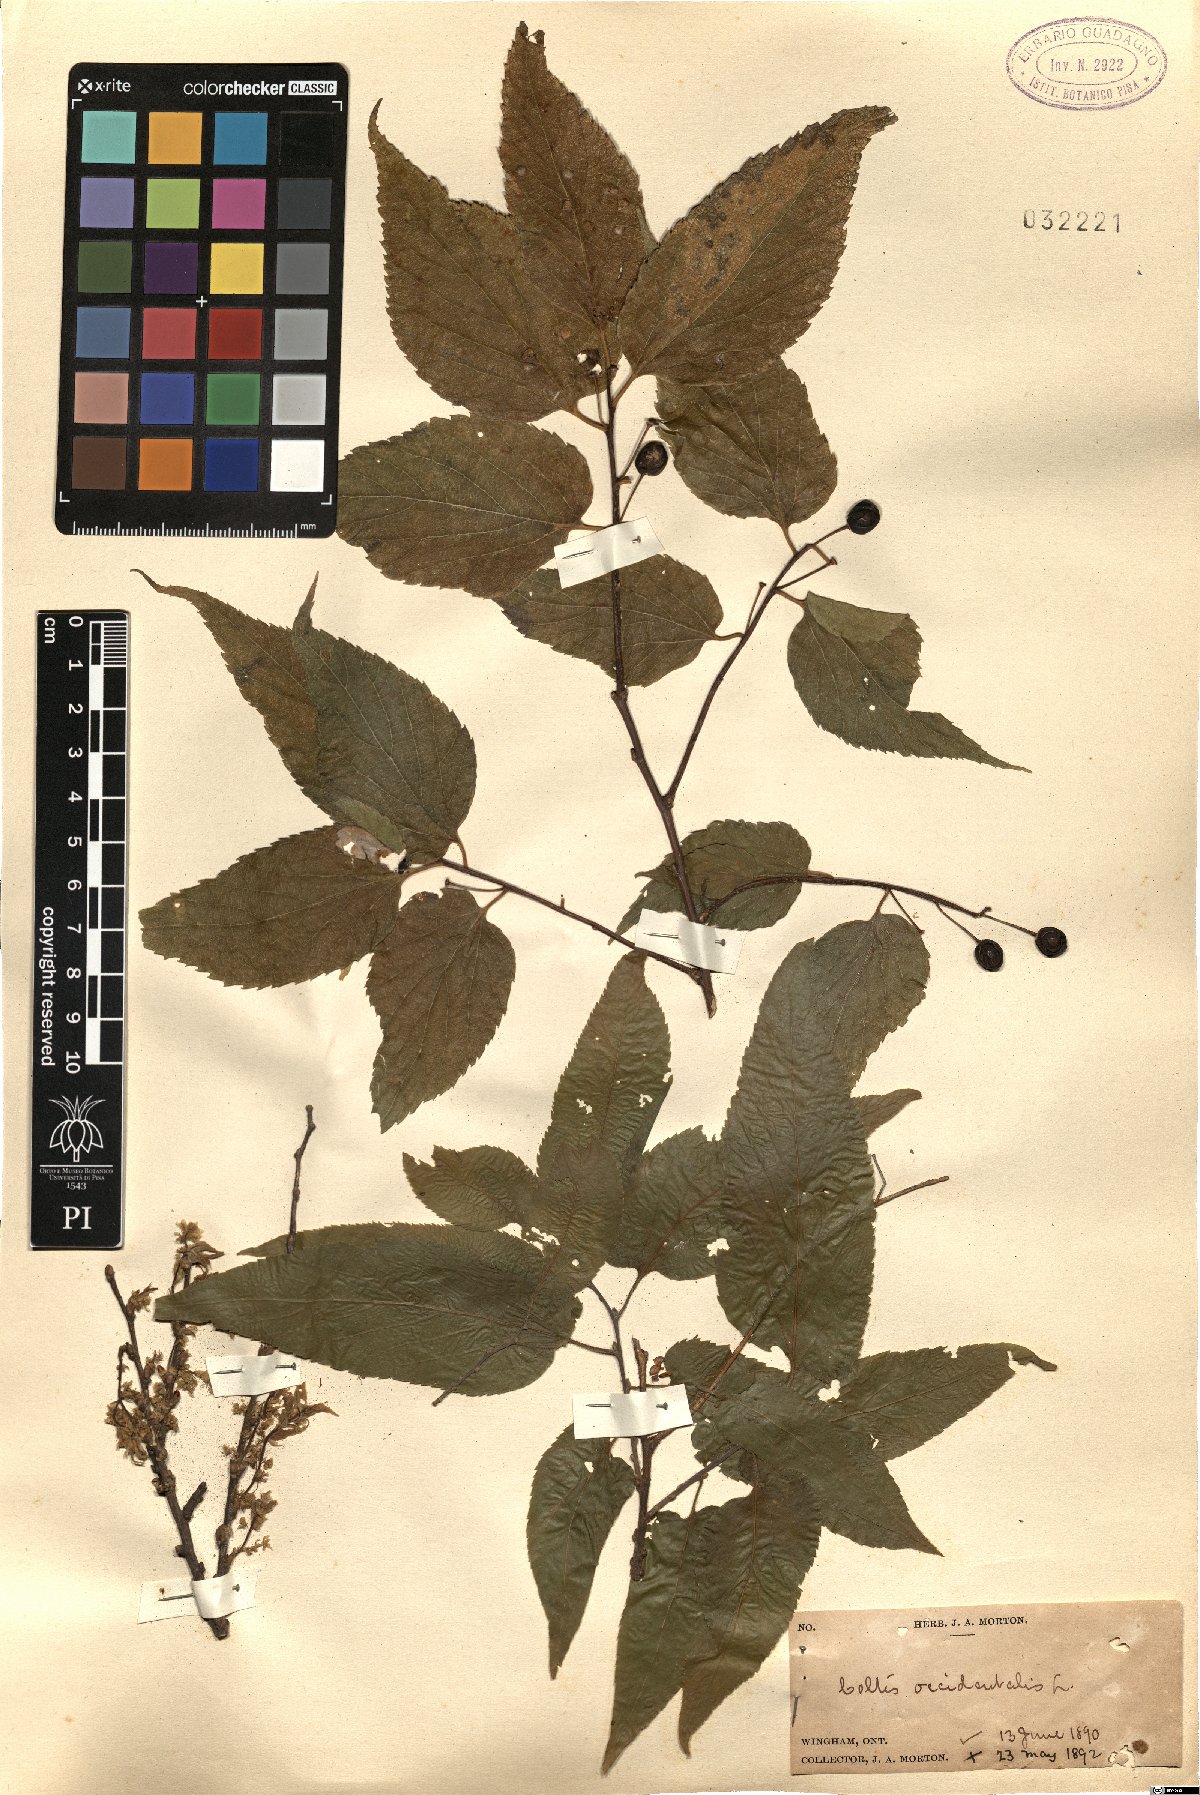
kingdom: Plantae
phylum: Tracheophyta
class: Magnoliopsida
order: Rosales
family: Cannabaceae
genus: Celtis
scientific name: Celtis occidentalis
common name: Common hackberry
